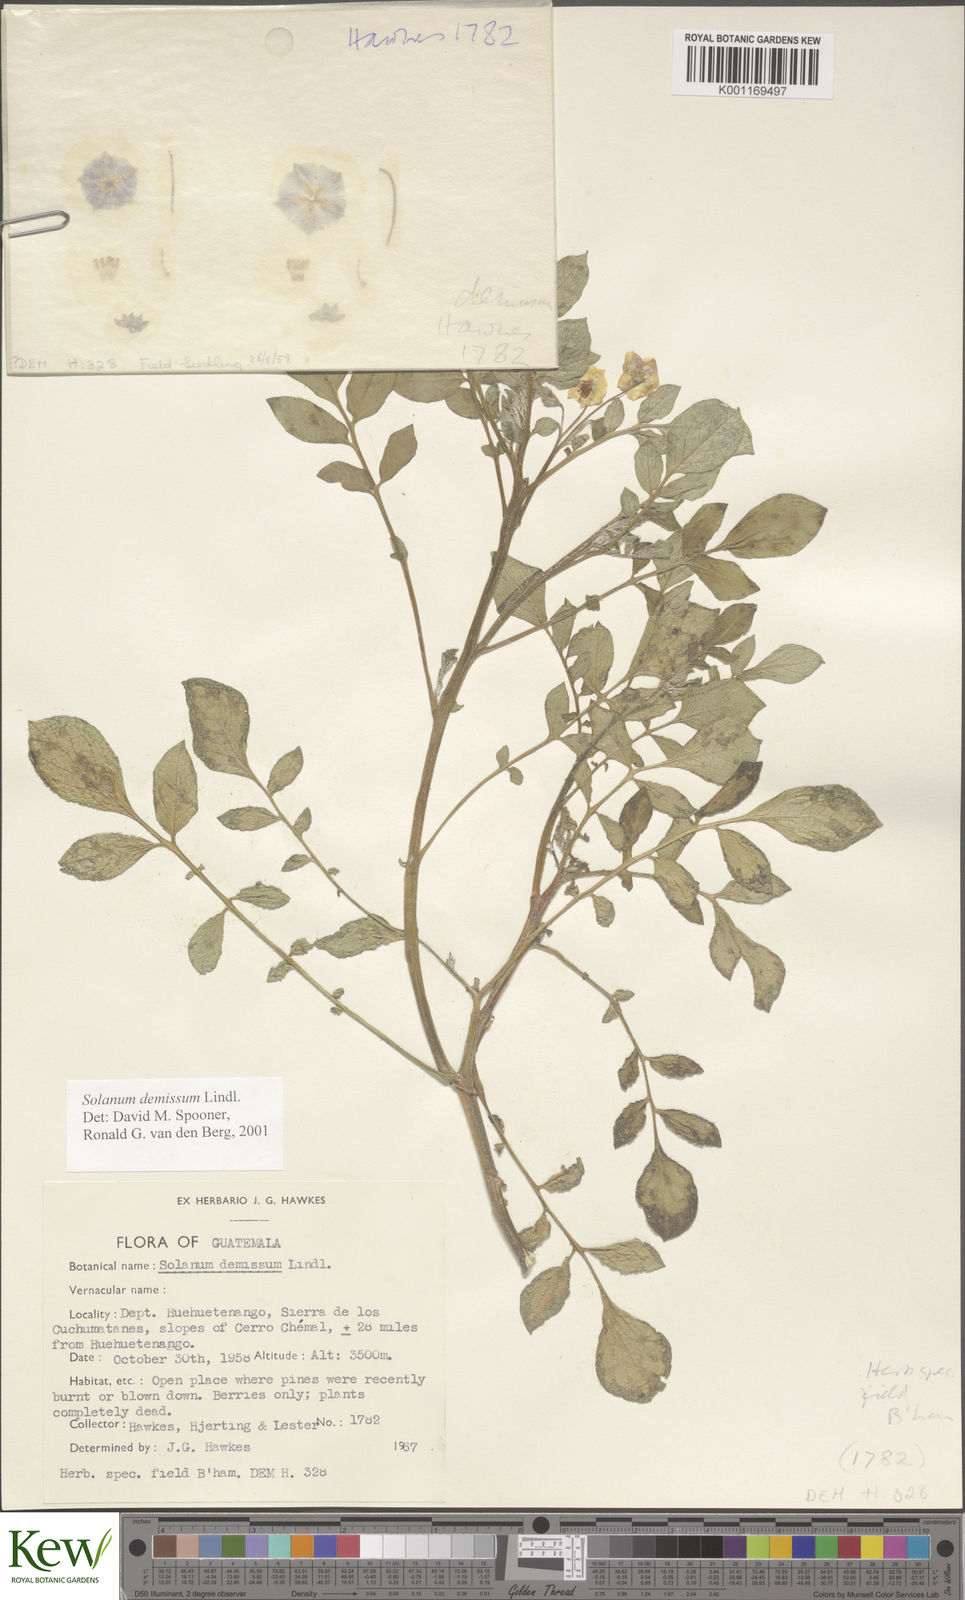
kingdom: Plantae
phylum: Tracheophyta
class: Magnoliopsida
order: Solanales
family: Solanaceae
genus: Solanum
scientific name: Solanum demissum
